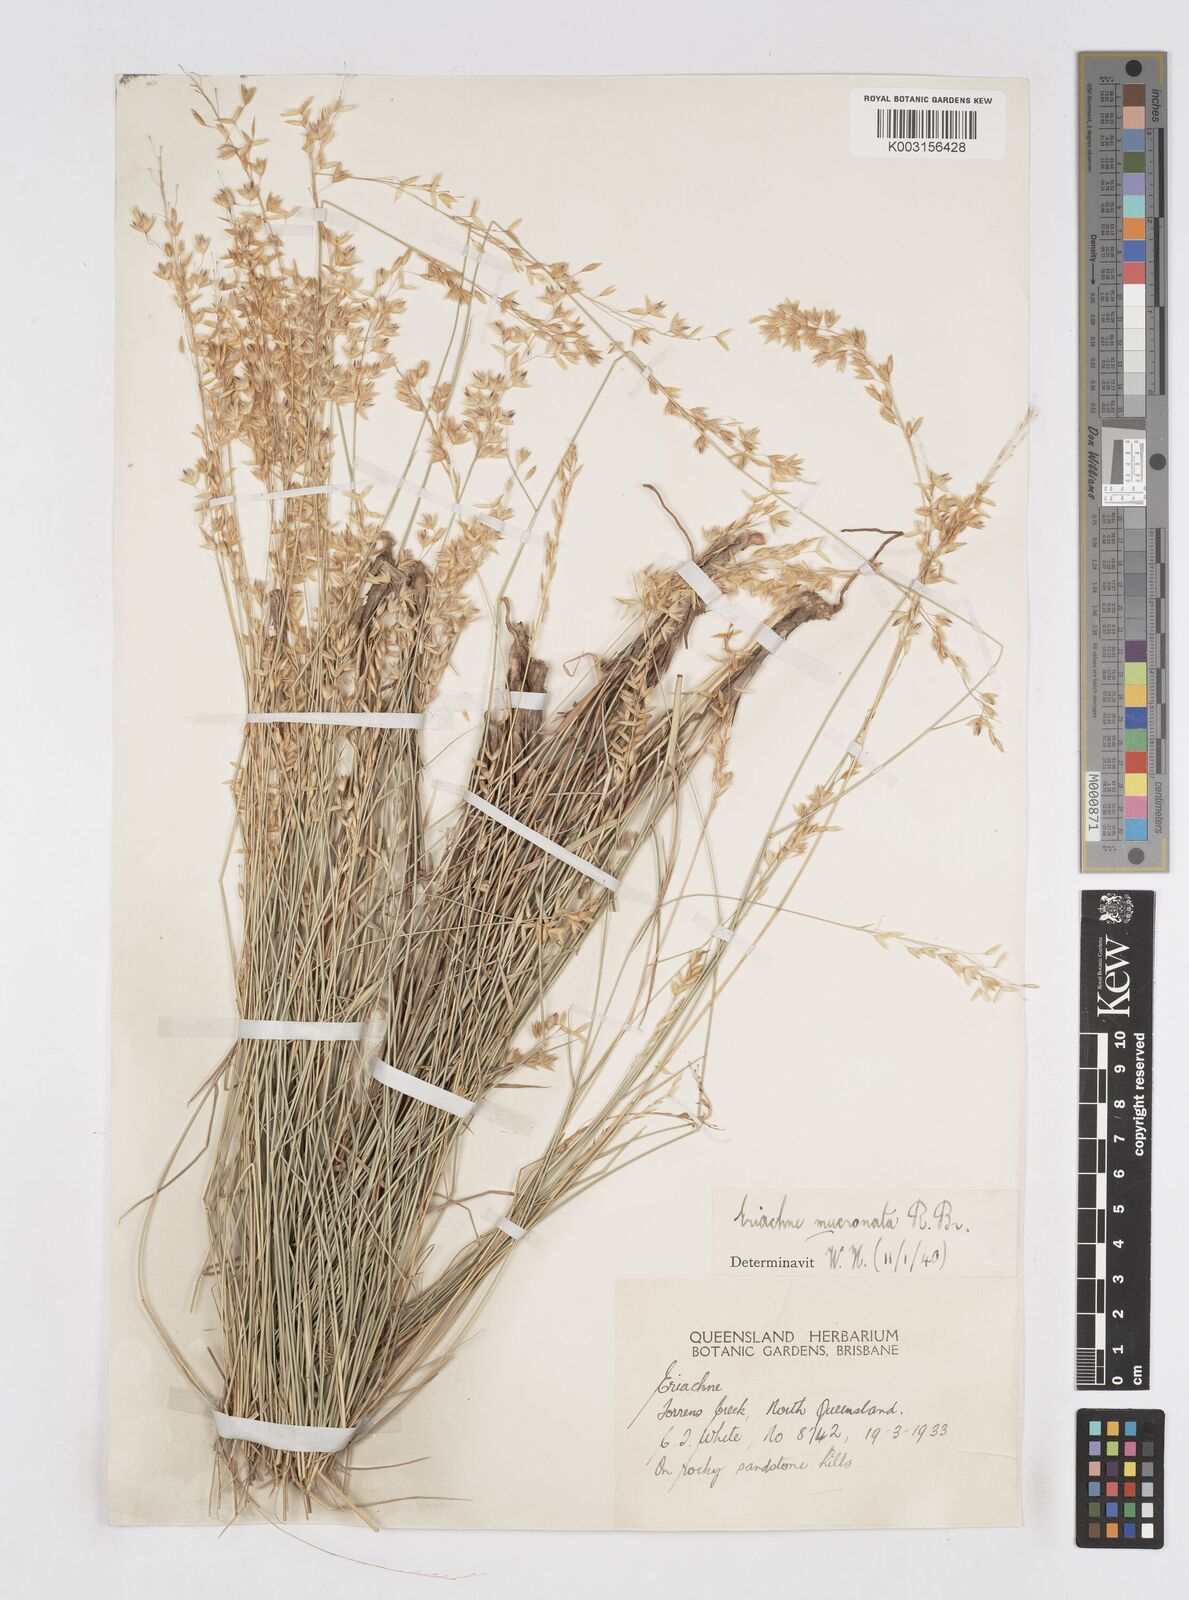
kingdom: Plantae
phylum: Tracheophyta
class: Liliopsida
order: Poales
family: Poaceae
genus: Eriachne
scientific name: Eriachne mucronata
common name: Mountain wanderrie grass
